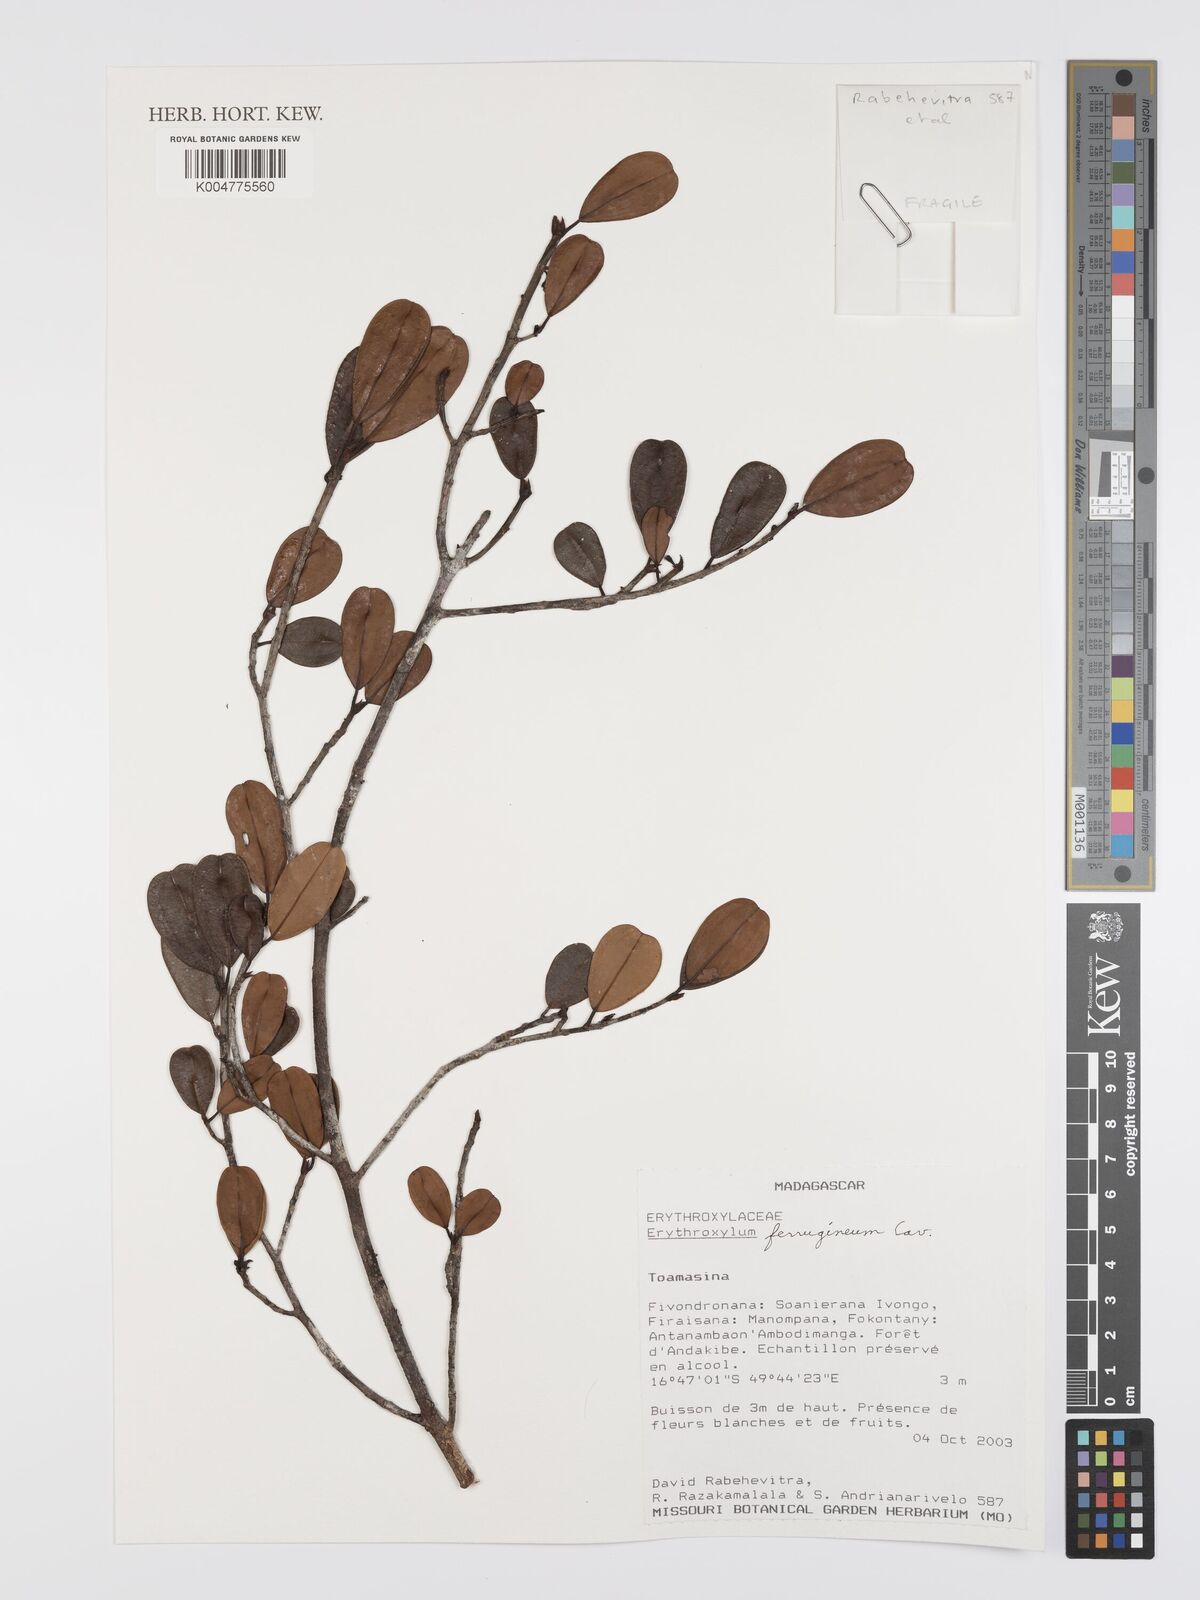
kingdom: Plantae
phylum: Tracheophyta
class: Magnoliopsida
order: Malpighiales
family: Erythroxylaceae
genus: Erythroxylum
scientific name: Erythroxylum ferrugineum
